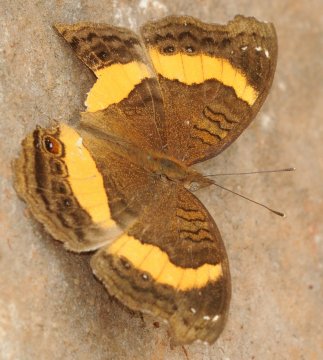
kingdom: Animalia
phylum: Arthropoda
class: Insecta
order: Lepidoptera
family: Nymphalidae
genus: Junonia
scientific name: Junonia terea
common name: Soldier Pansy
